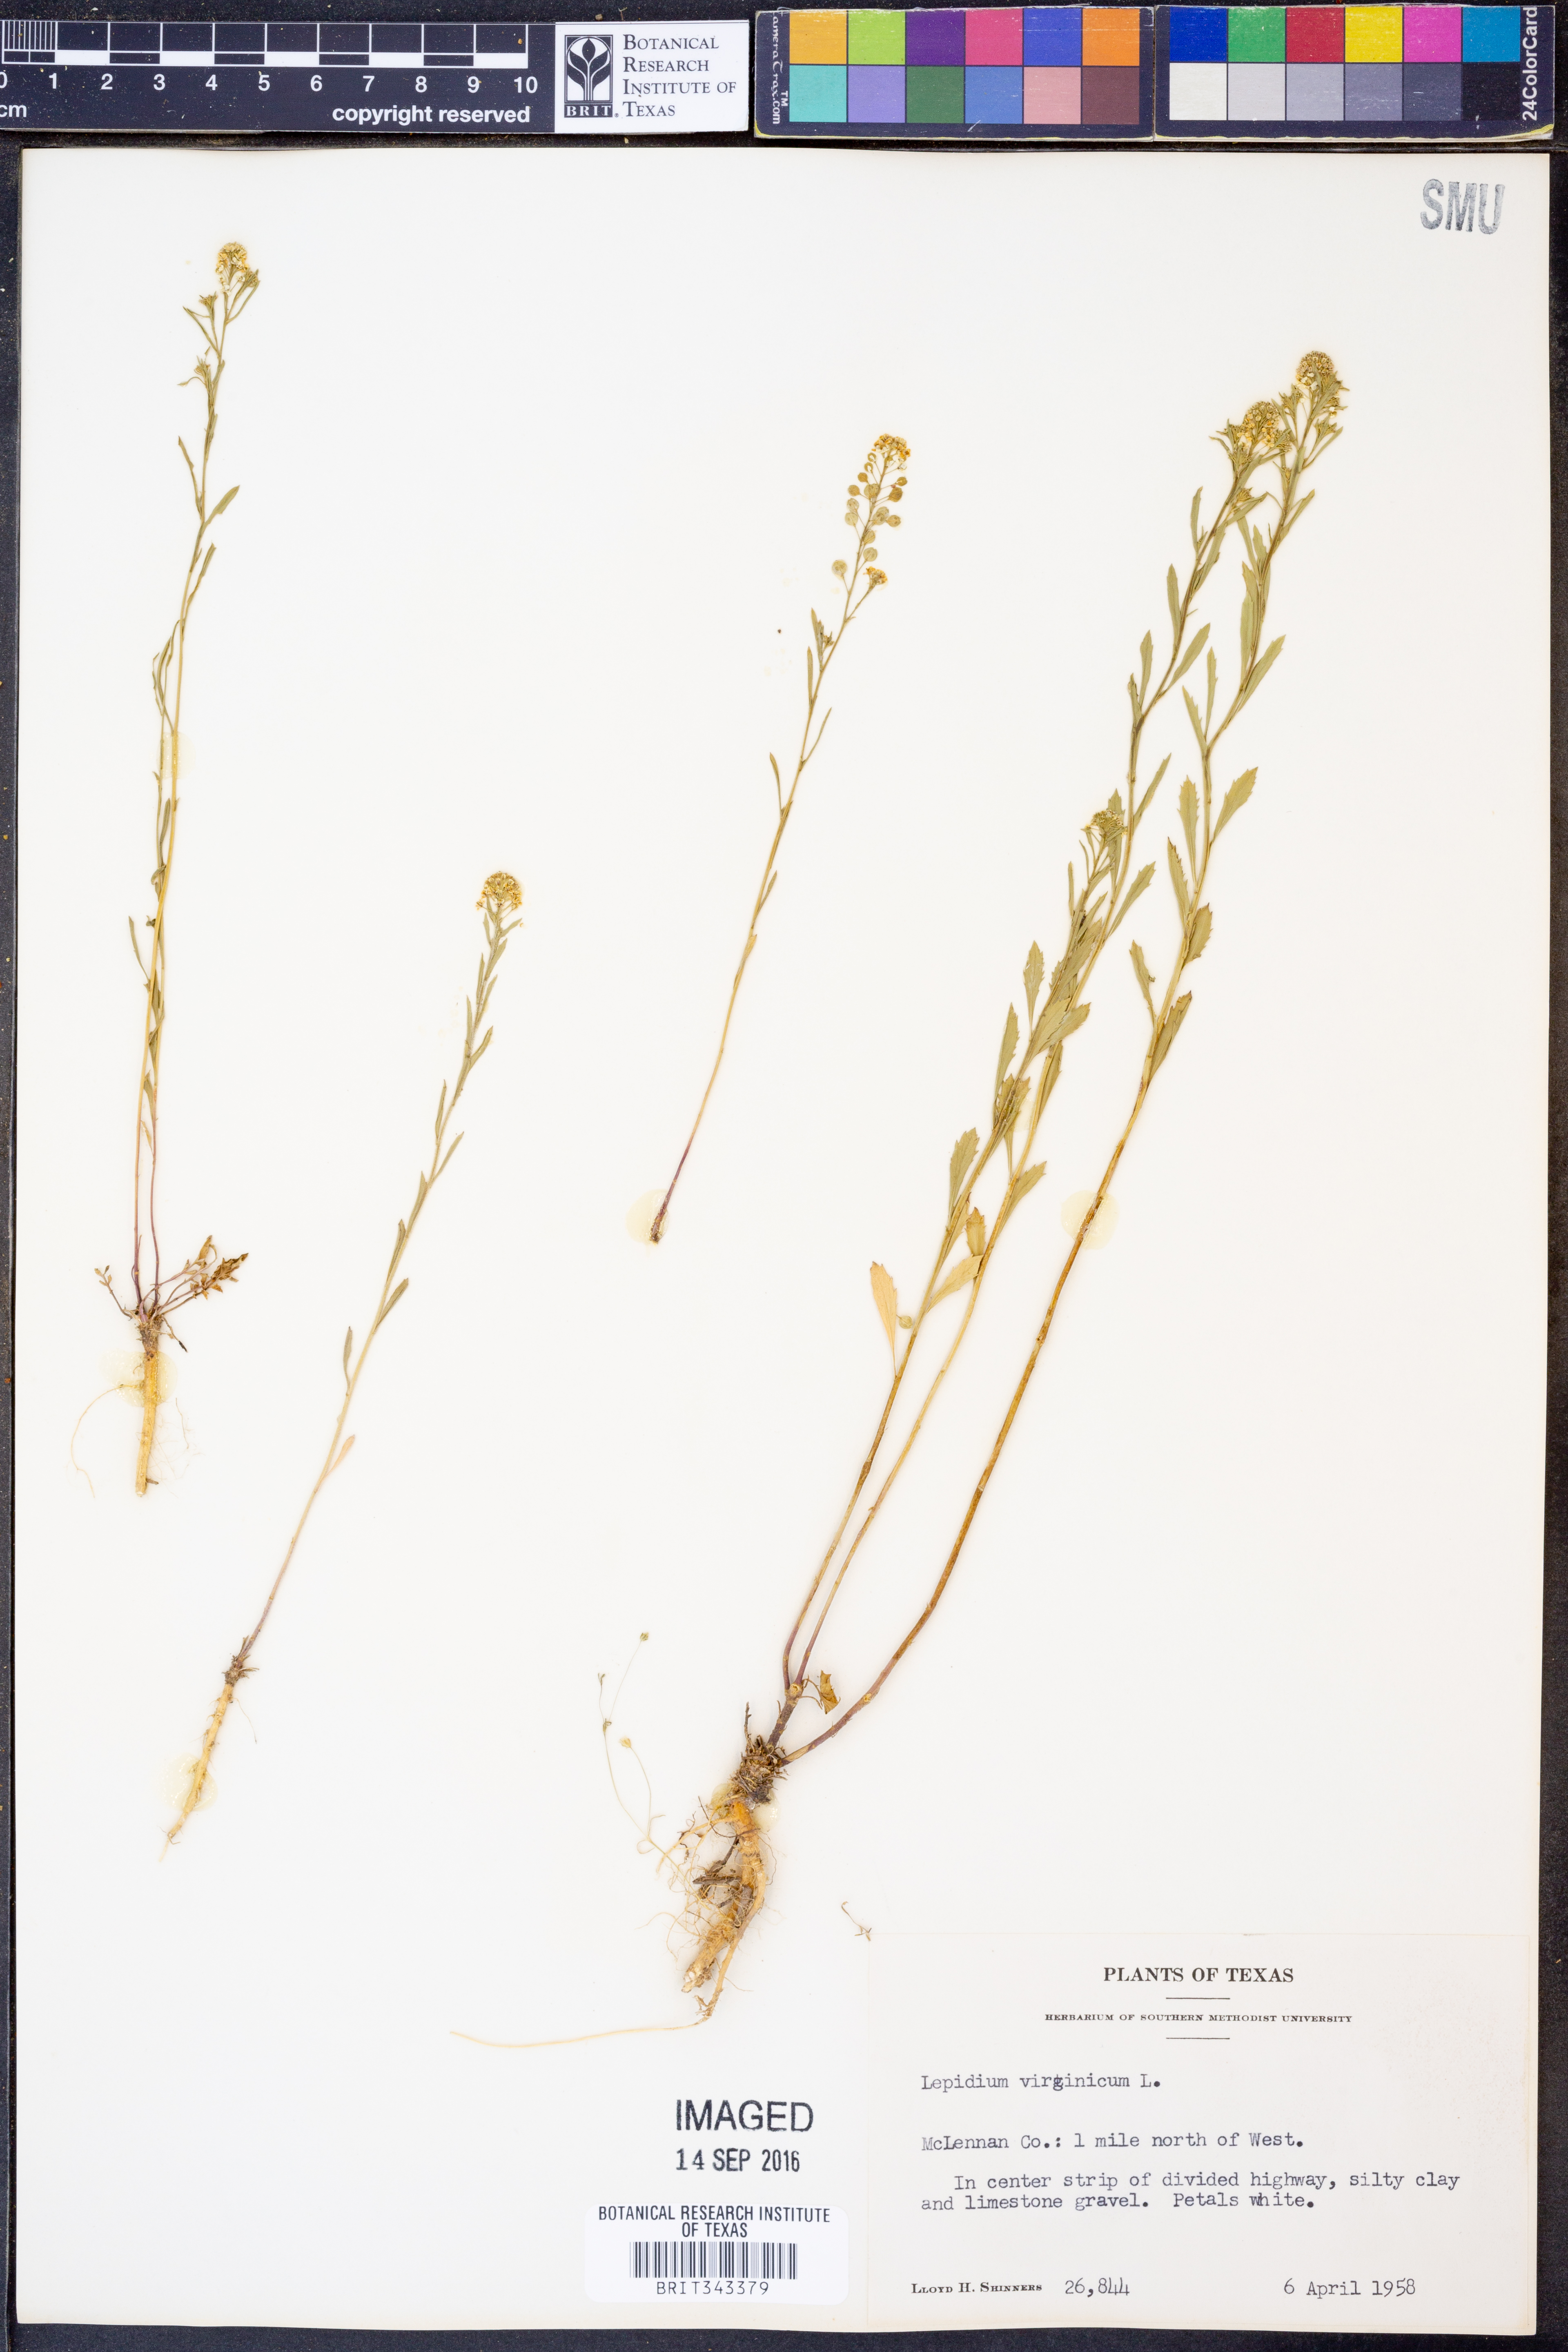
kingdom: Plantae
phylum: Tracheophyta
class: Magnoliopsida
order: Brassicales
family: Brassicaceae
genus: Lepidium
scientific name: Lepidium virginicum
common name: Least pepperwort
